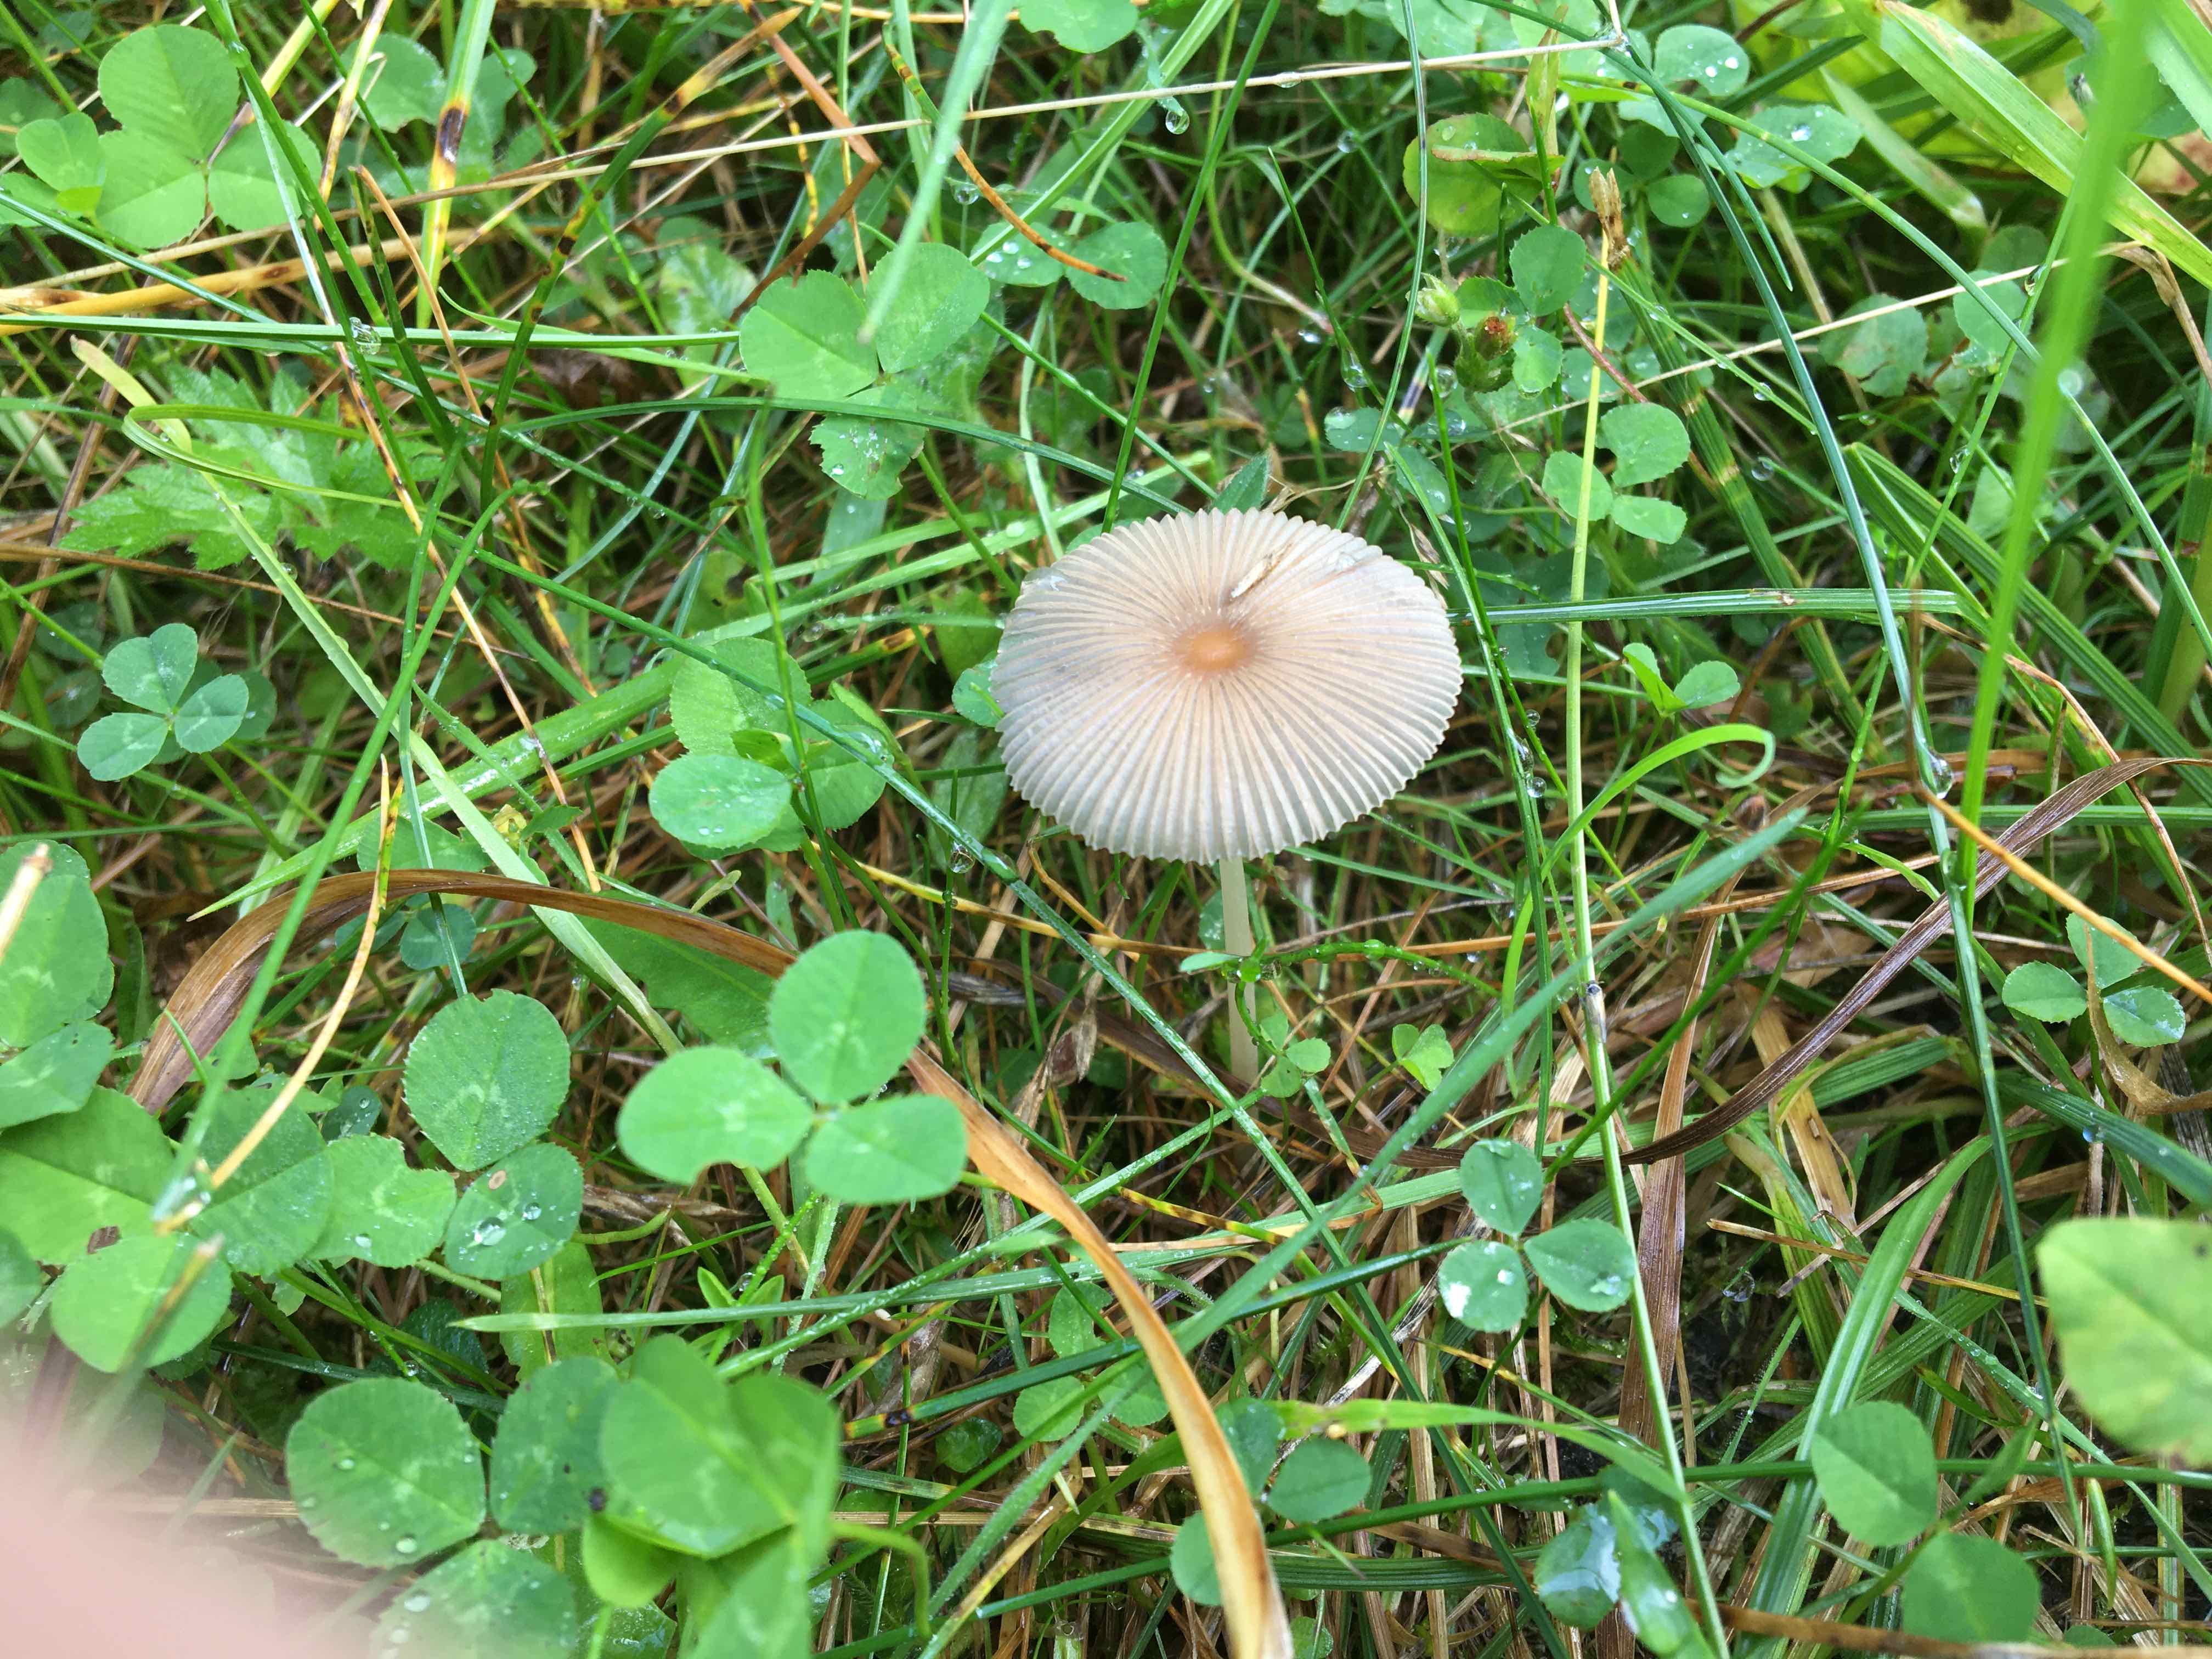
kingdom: Fungi
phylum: Basidiomycota
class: Agaricomycetes
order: Agaricales
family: Psathyrellaceae
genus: Parasola
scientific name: Parasola
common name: hjulhat
